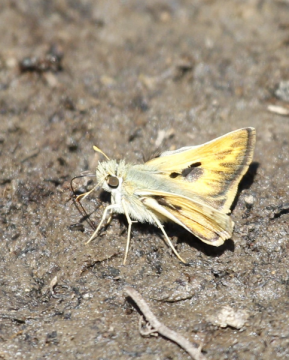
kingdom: Animalia
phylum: Arthropoda
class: Insecta
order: Lepidoptera
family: Hesperiidae
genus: Polites
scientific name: Polites sabuleti
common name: Sandhill Skipper
